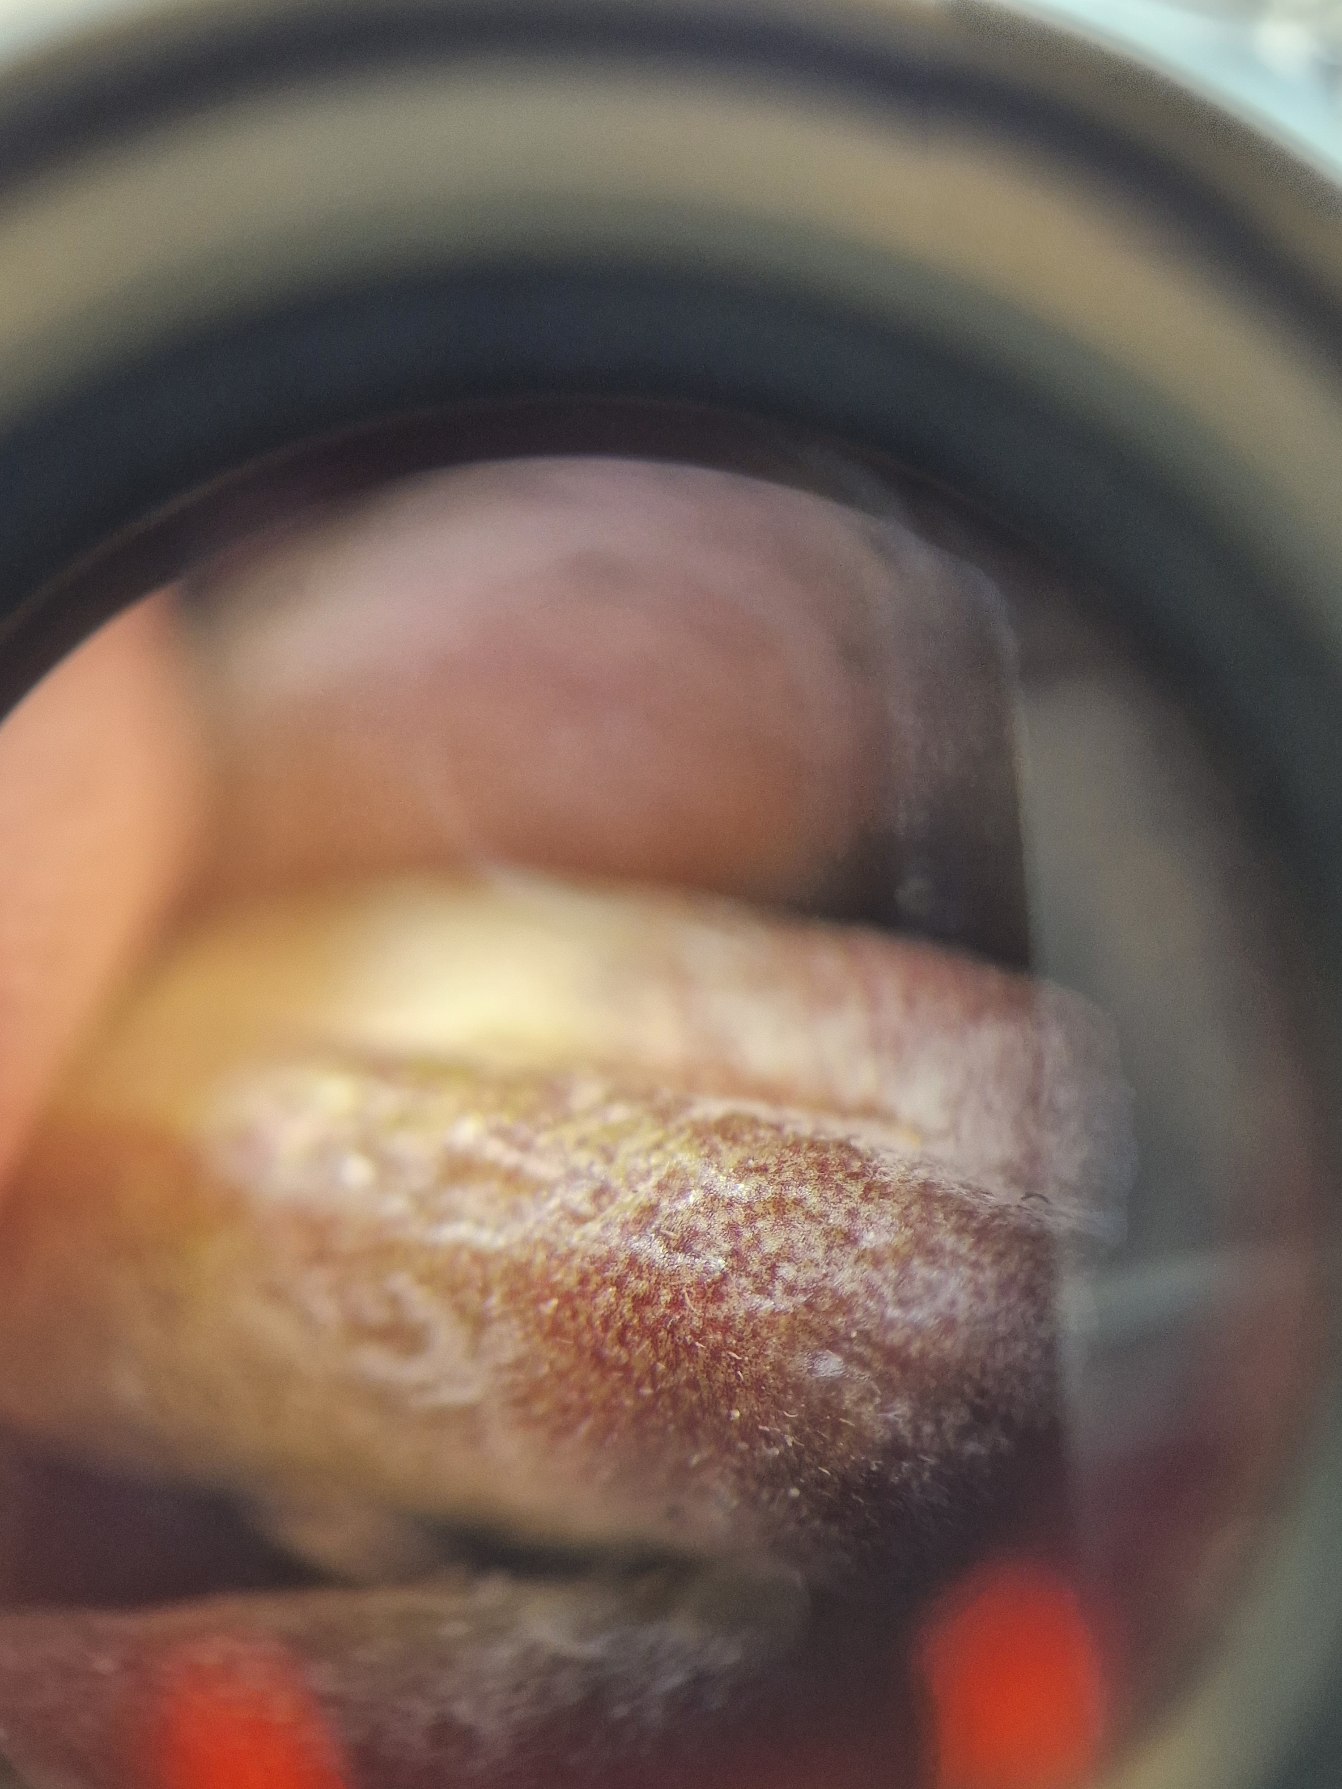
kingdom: Plantae
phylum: Tracheophyta
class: Magnoliopsida
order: Fabales
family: Fabaceae
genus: Astragalus
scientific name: Astragalus glycyphyllos
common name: Sød astragel
